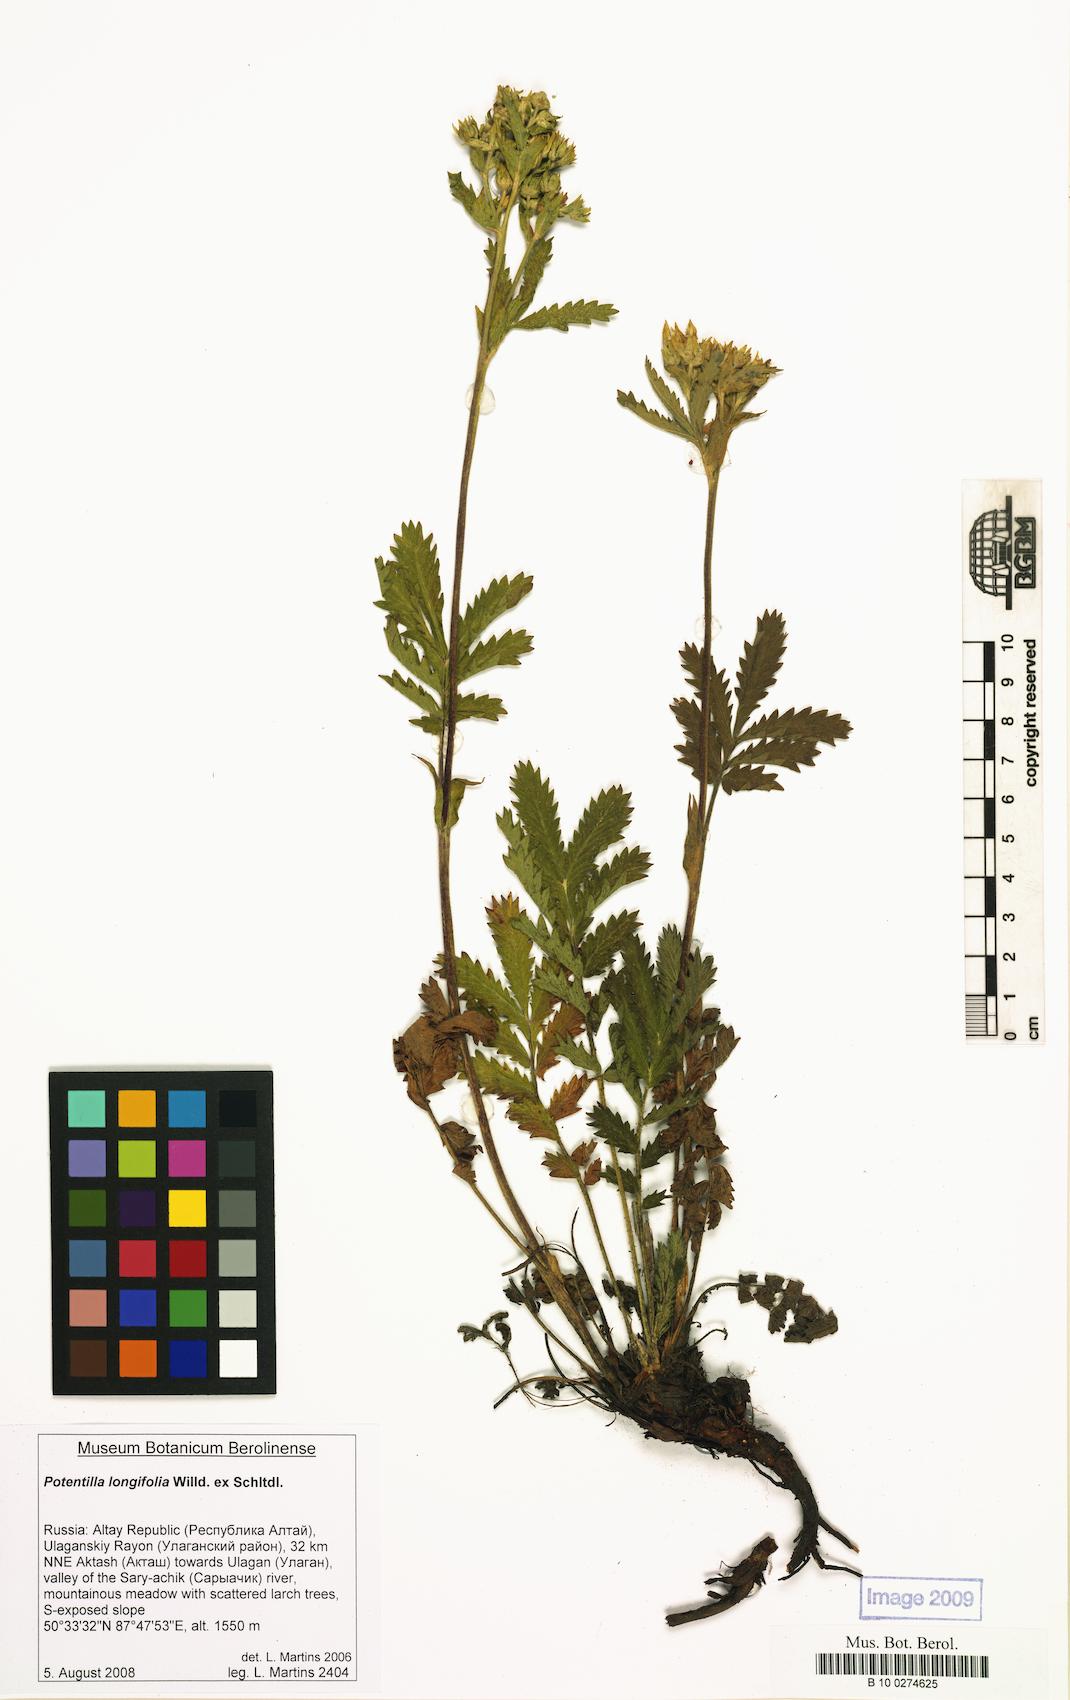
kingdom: Plantae
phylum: Tracheophyta
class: Magnoliopsida
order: Rosales
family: Rosaceae
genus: Potentilla
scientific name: Potentilla longifolia
